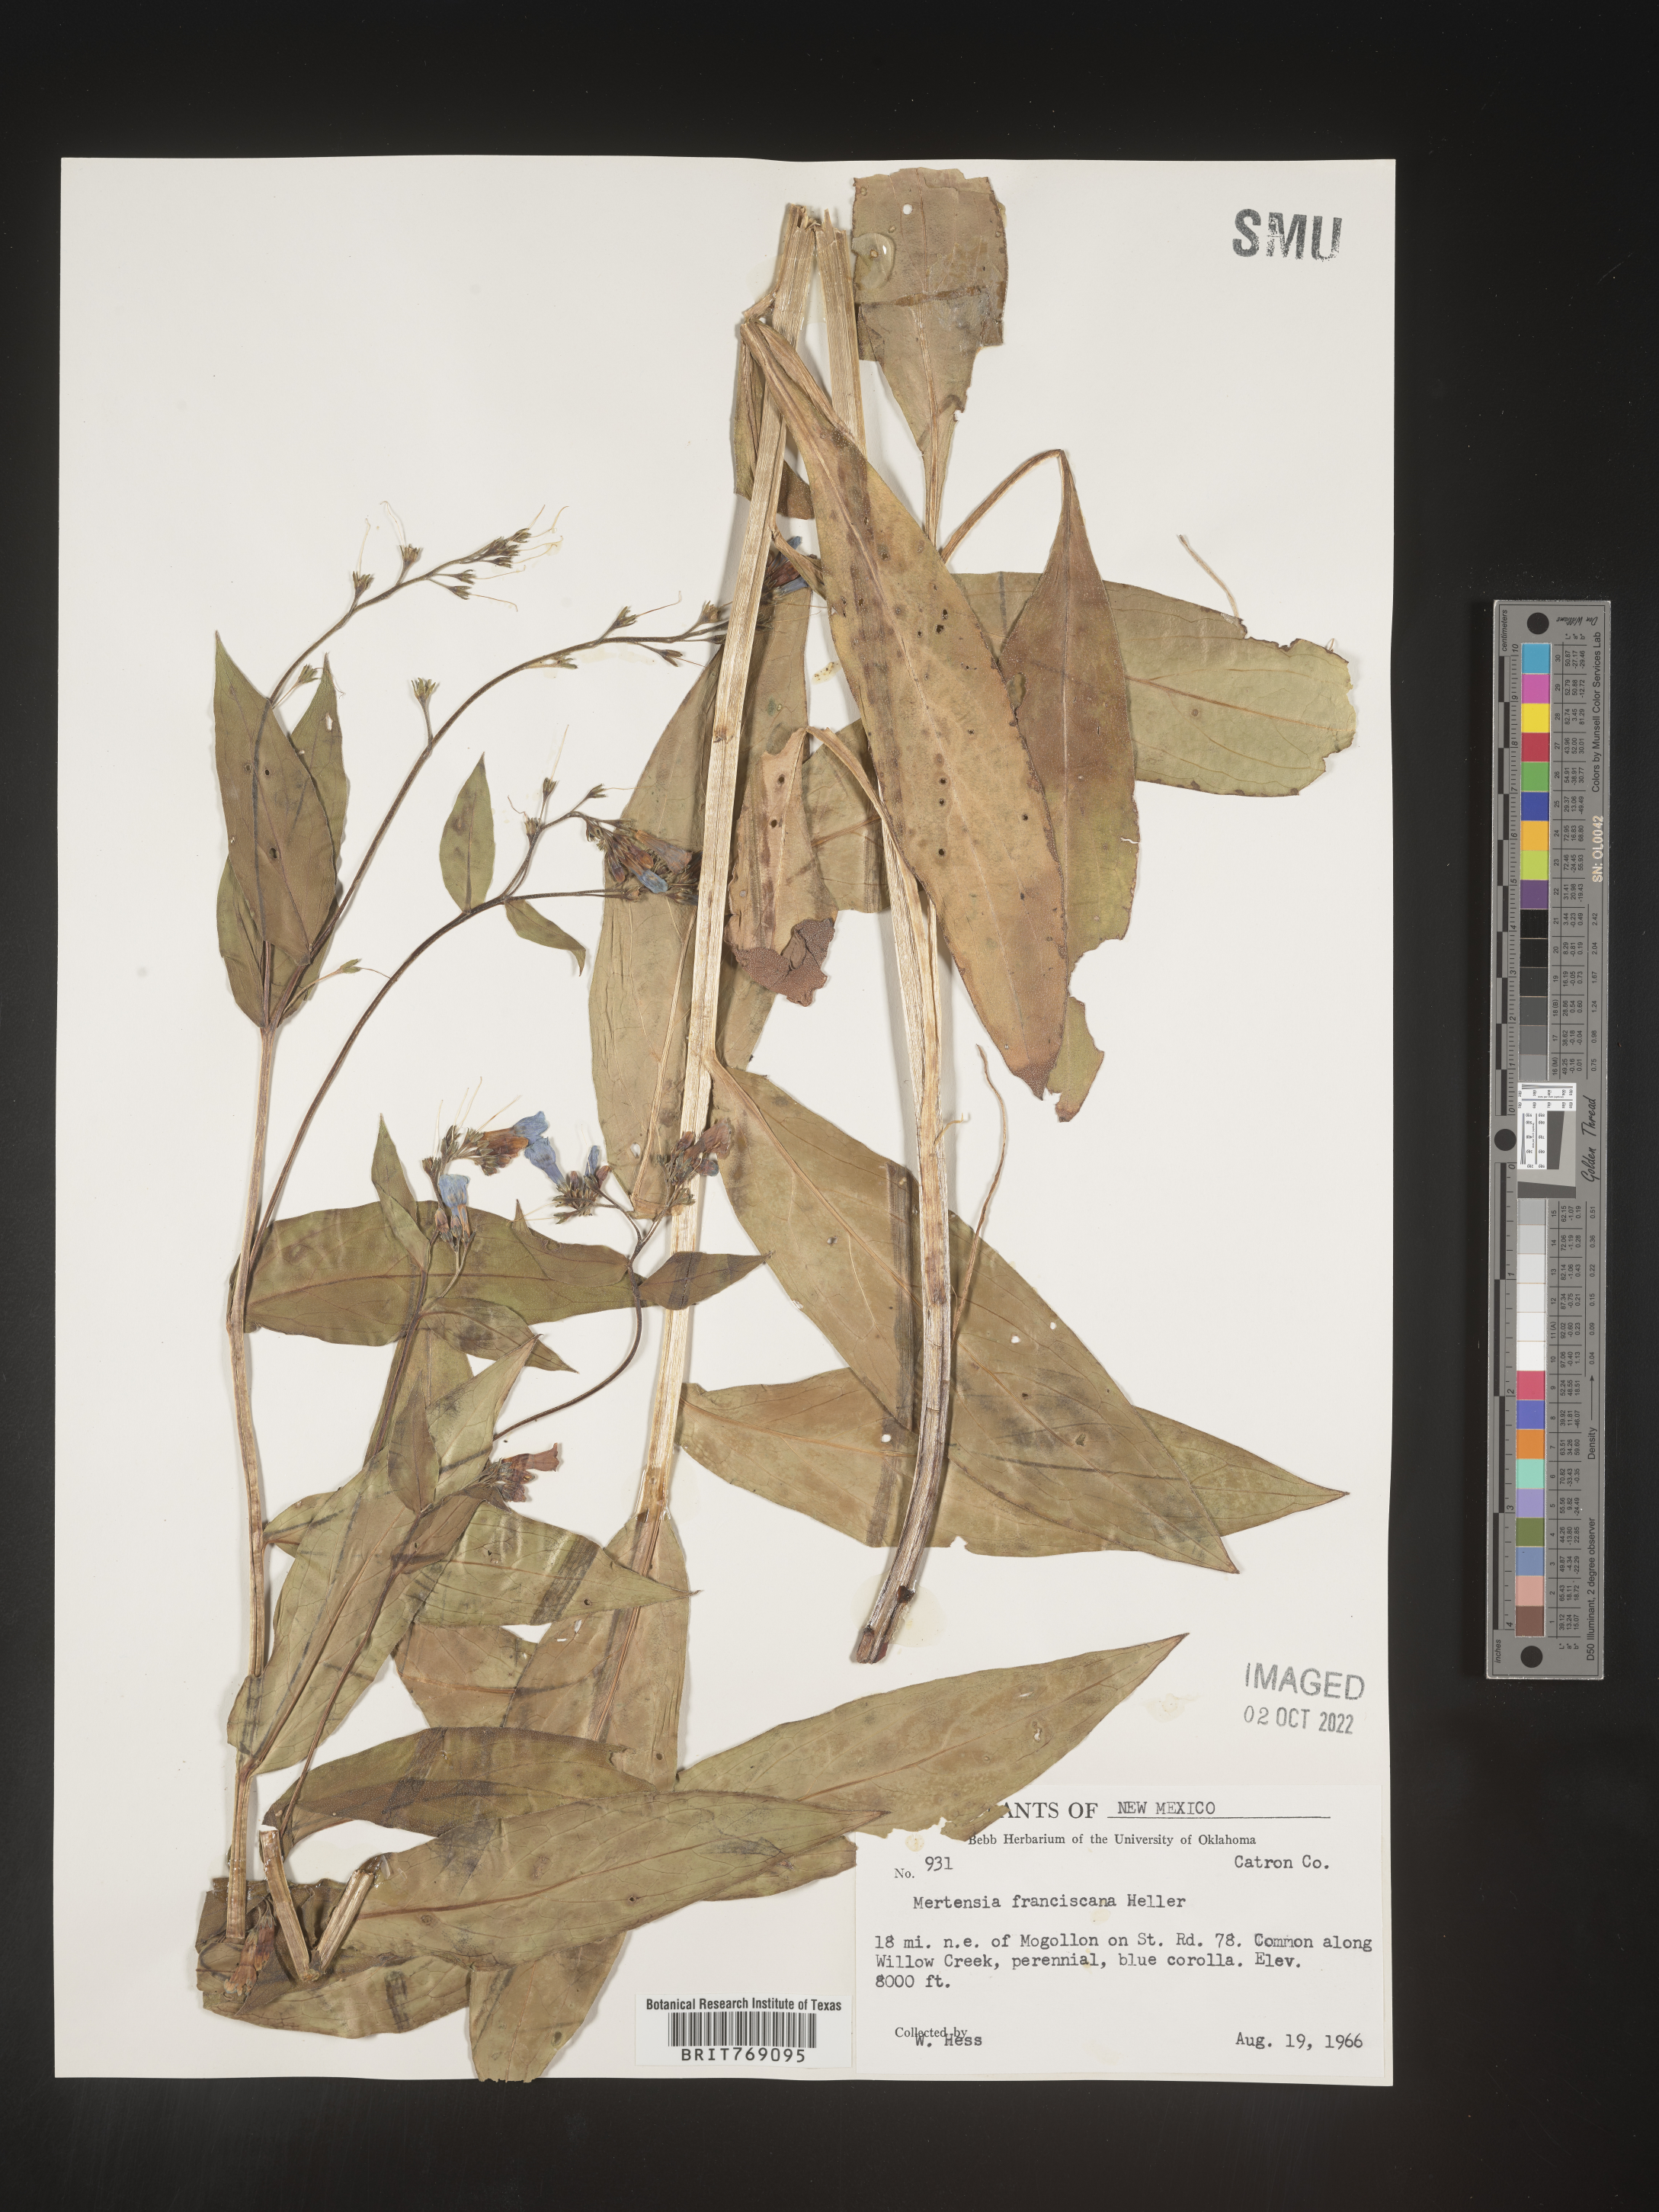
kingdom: Plantae
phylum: Tracheophyta
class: Magnoliopsida
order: Boraginales
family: Boraginaceae
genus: Mertensia
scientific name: Mertensia
